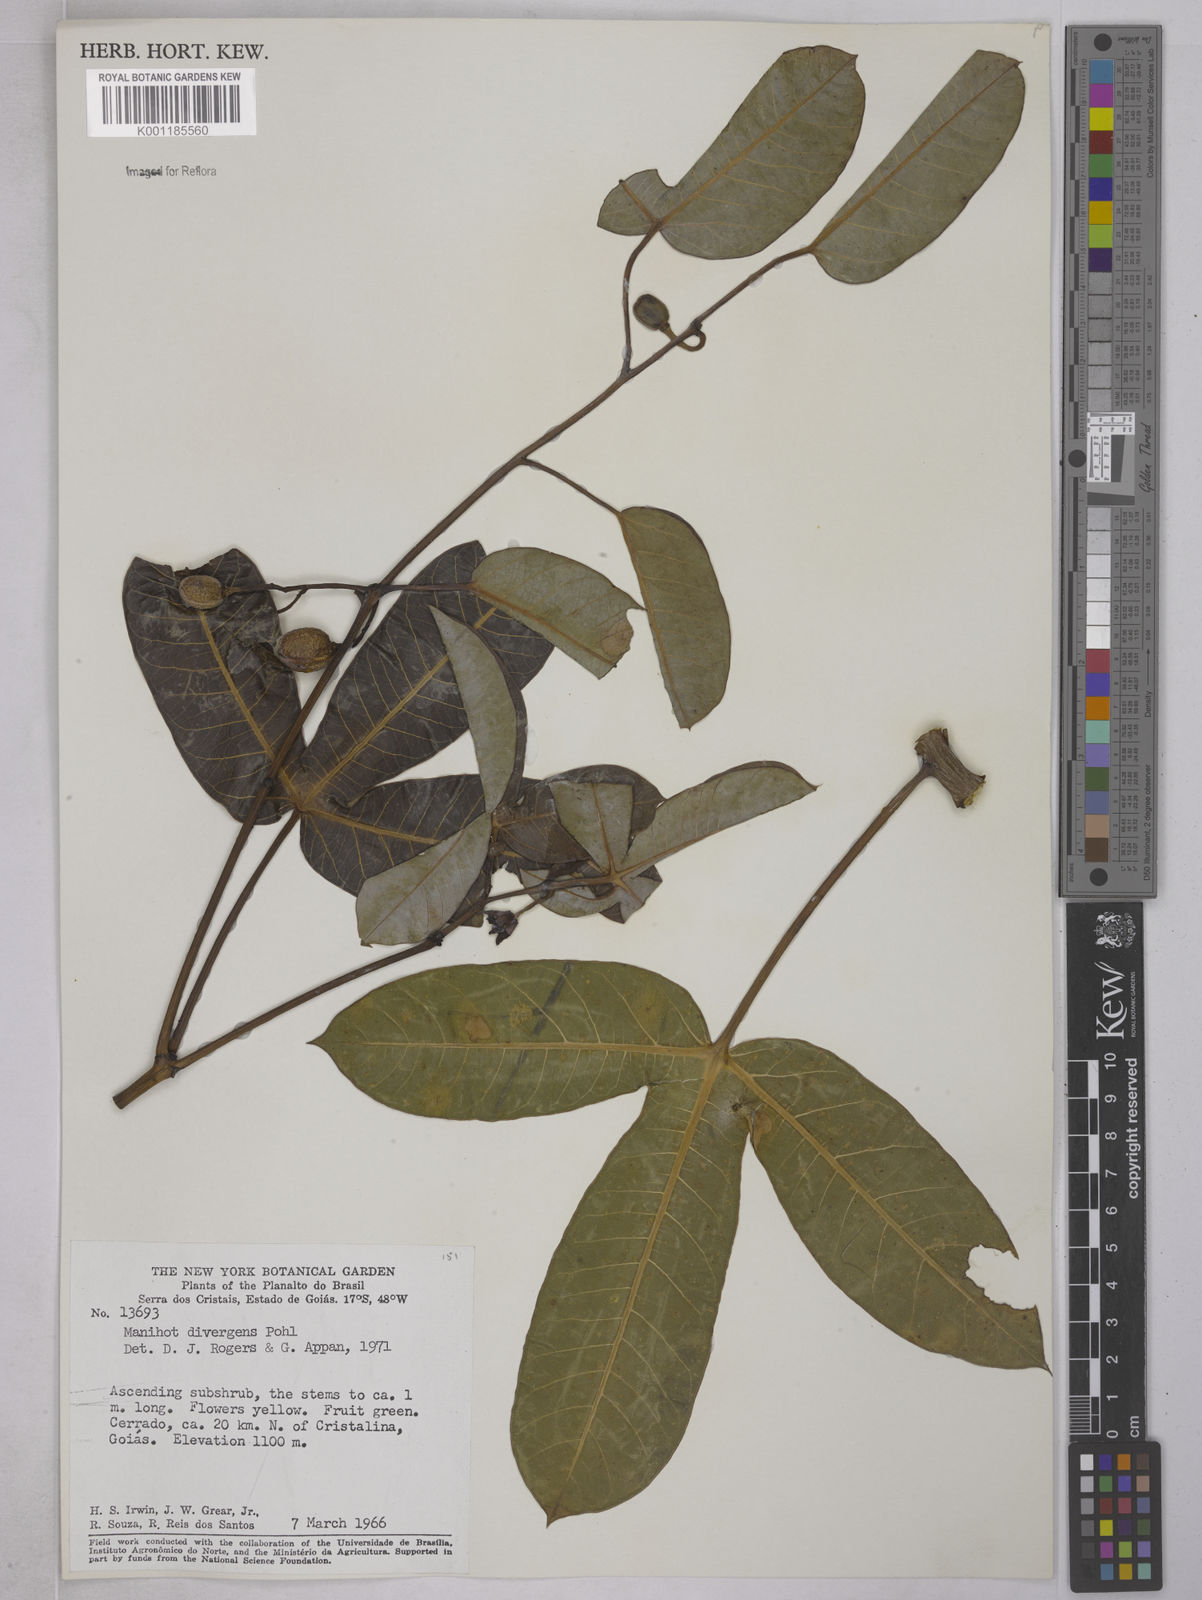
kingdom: Plantae
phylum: Tracheophyta
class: Magnoliopsida
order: Malpighiales
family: Euphorbiaceae
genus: Manihot
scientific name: Manihot divergens
